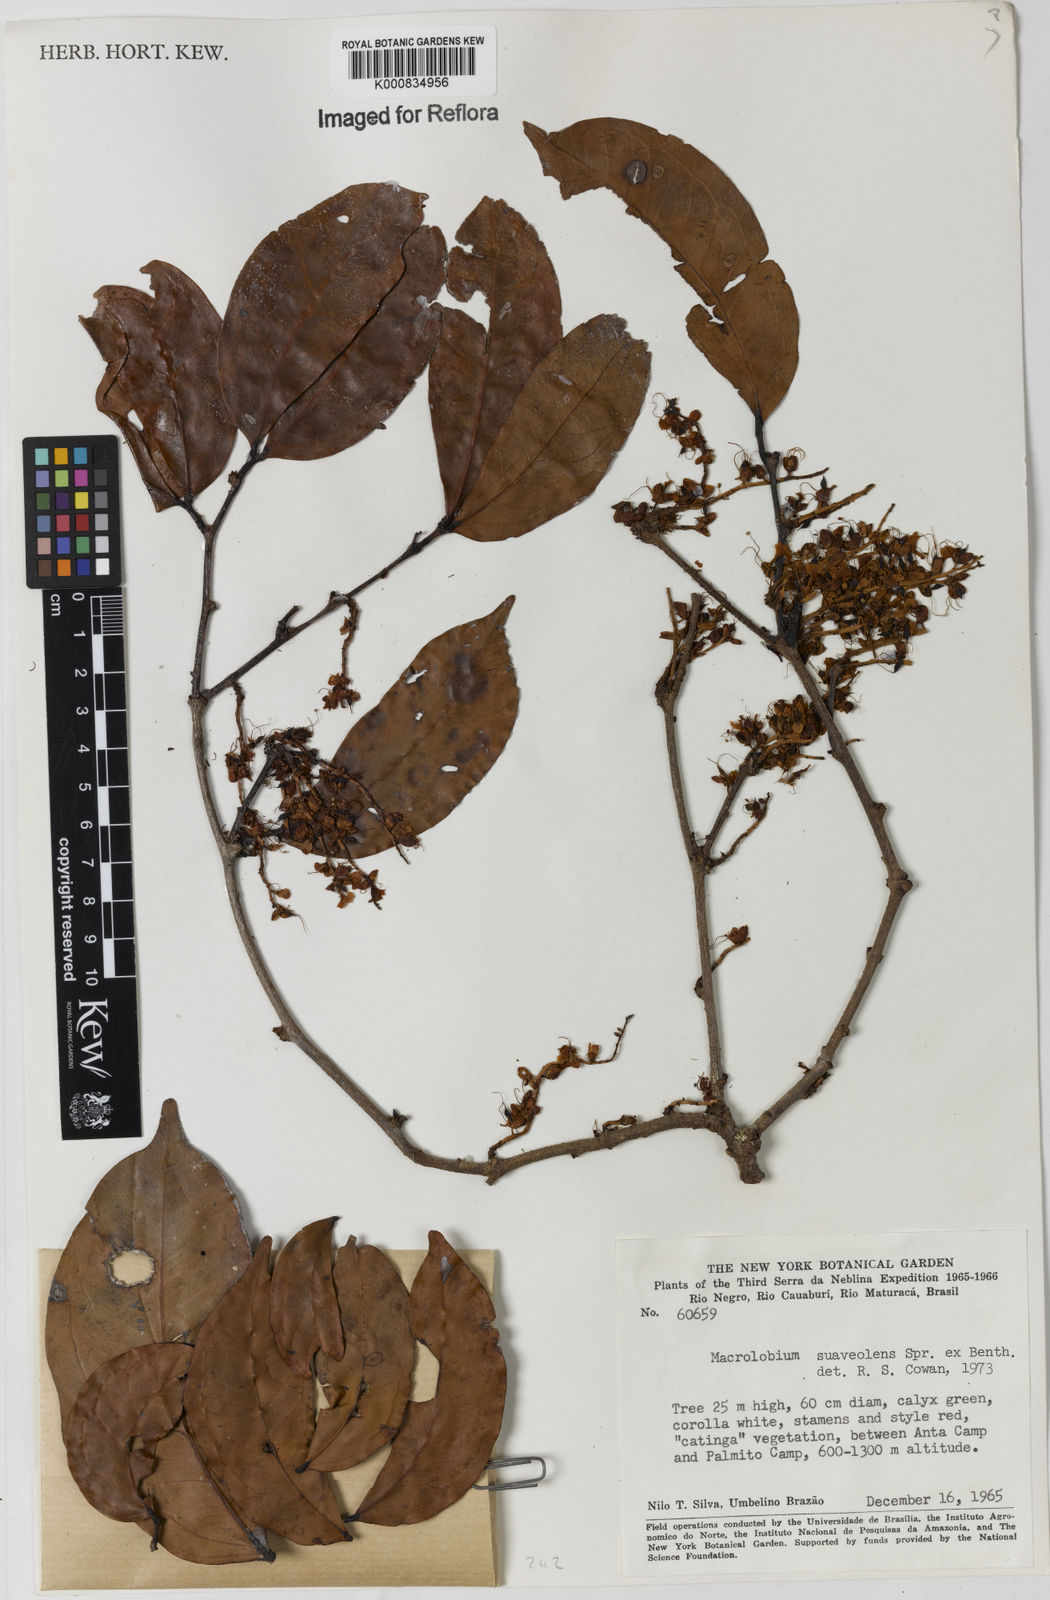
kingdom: Plantae
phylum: Tracheophyta
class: Magnoliopsida
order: Fabales
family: Fabaceae
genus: Macrolobium
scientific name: Macrolobium suaveolens
